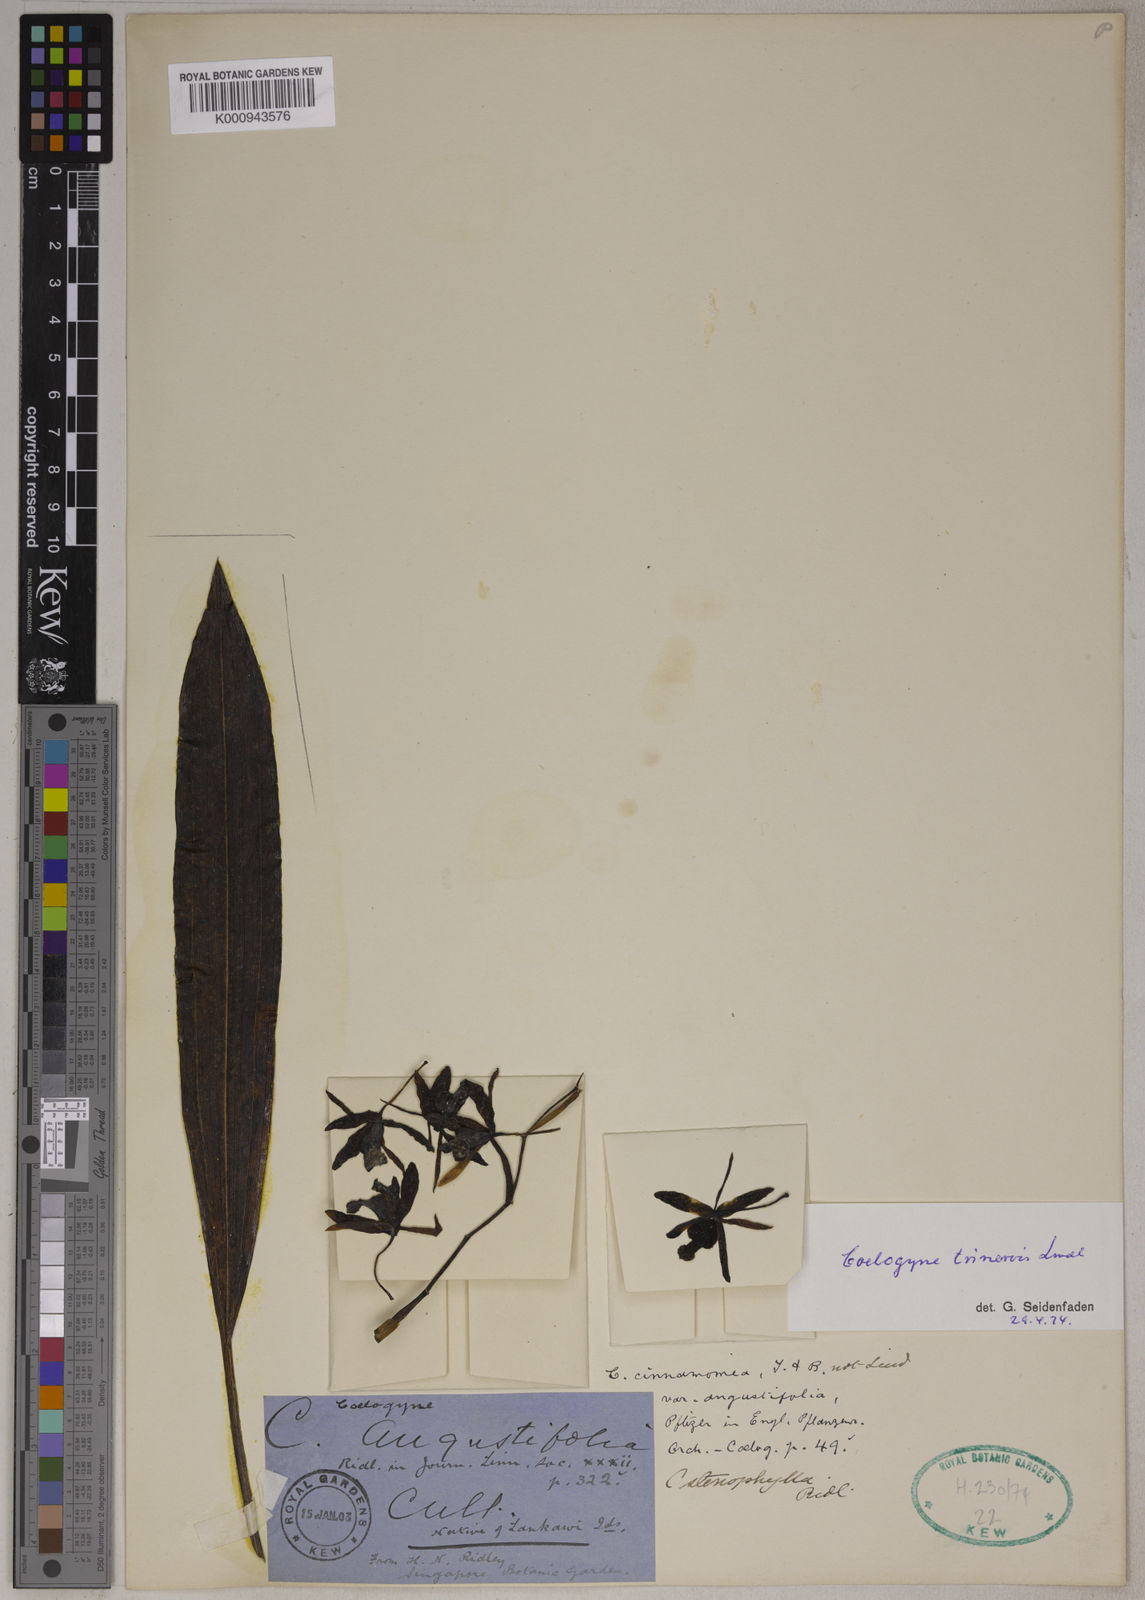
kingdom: Plantae
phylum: Tracheophyta
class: Liliopsida
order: Asparagales
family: Orchidaceae
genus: Coelogyne
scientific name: Coelogyne trinervis
